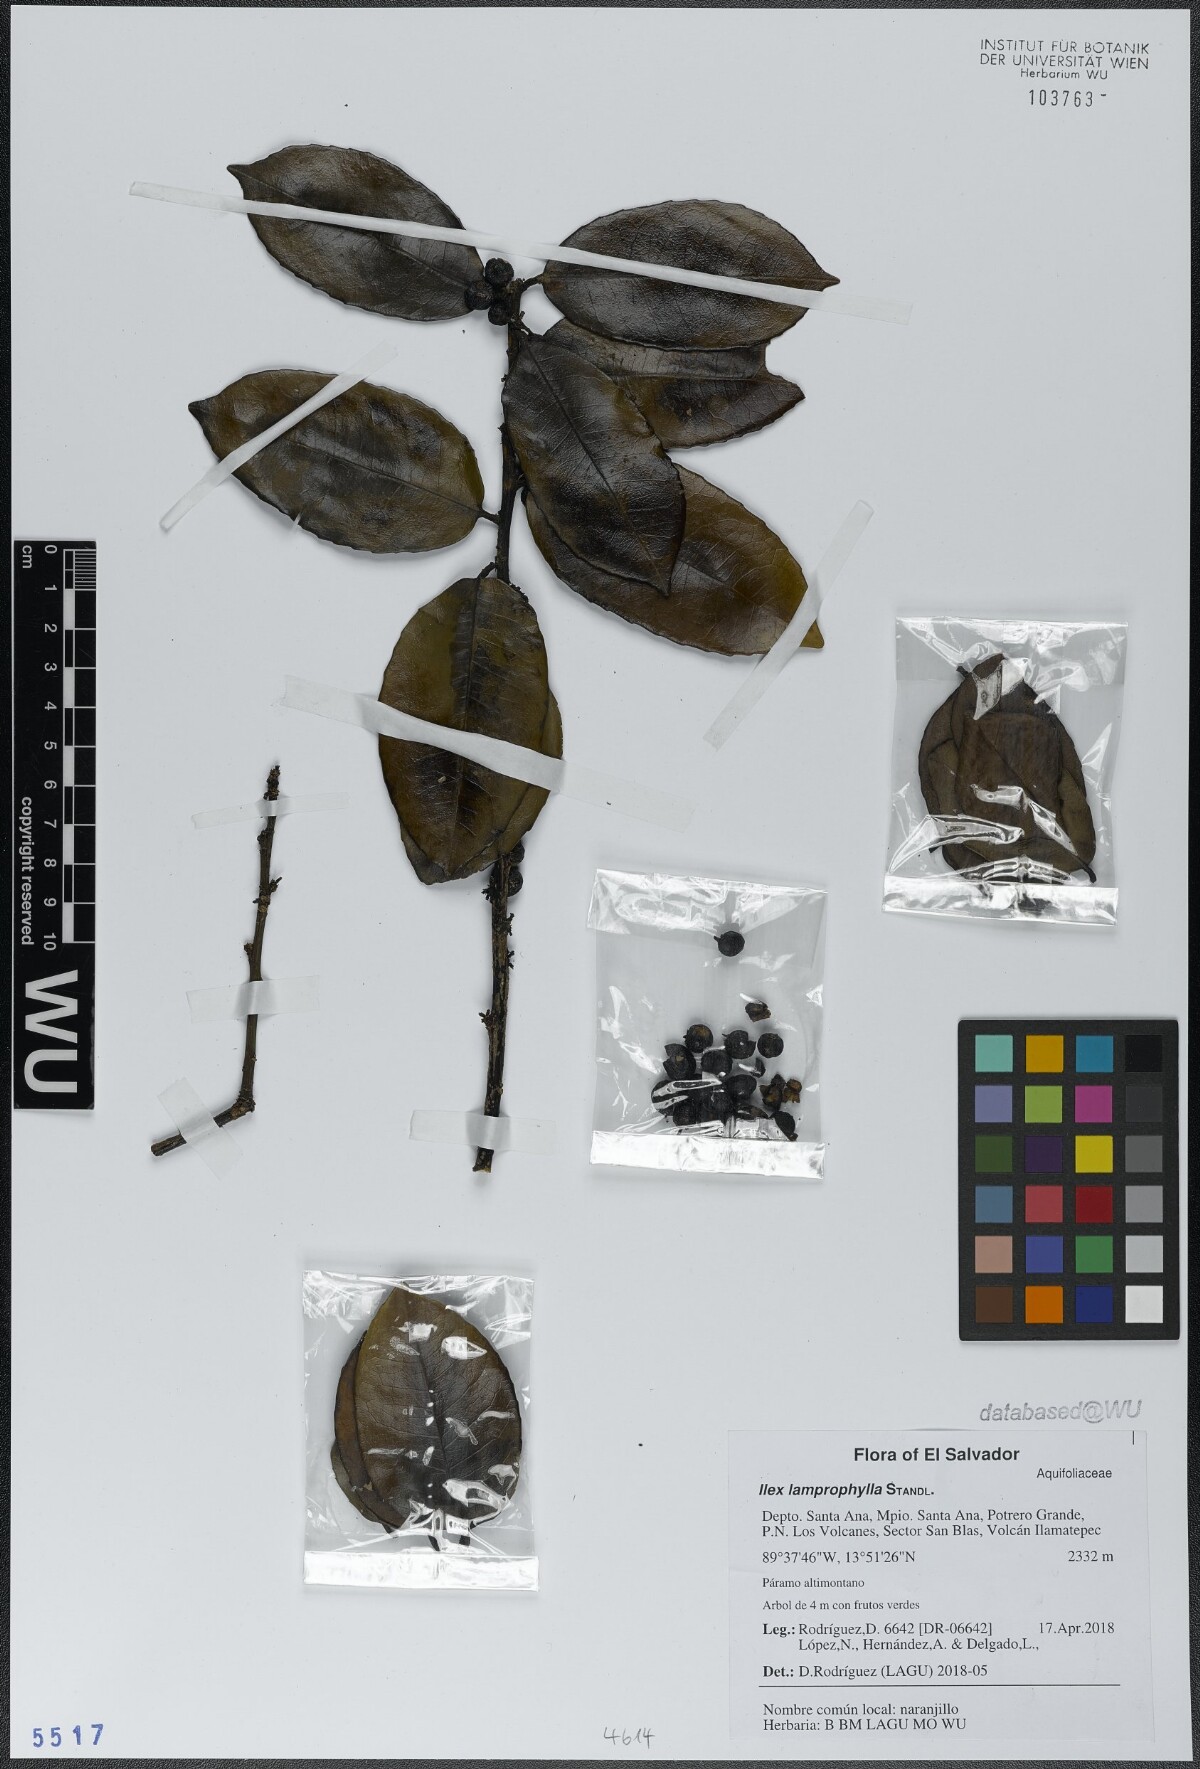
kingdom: Plantae
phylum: Tracheophyta
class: Magnoliopsida
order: Aquifoliales
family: Aquifoliaceae
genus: Ilex
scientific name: Ilex lamprophylla
